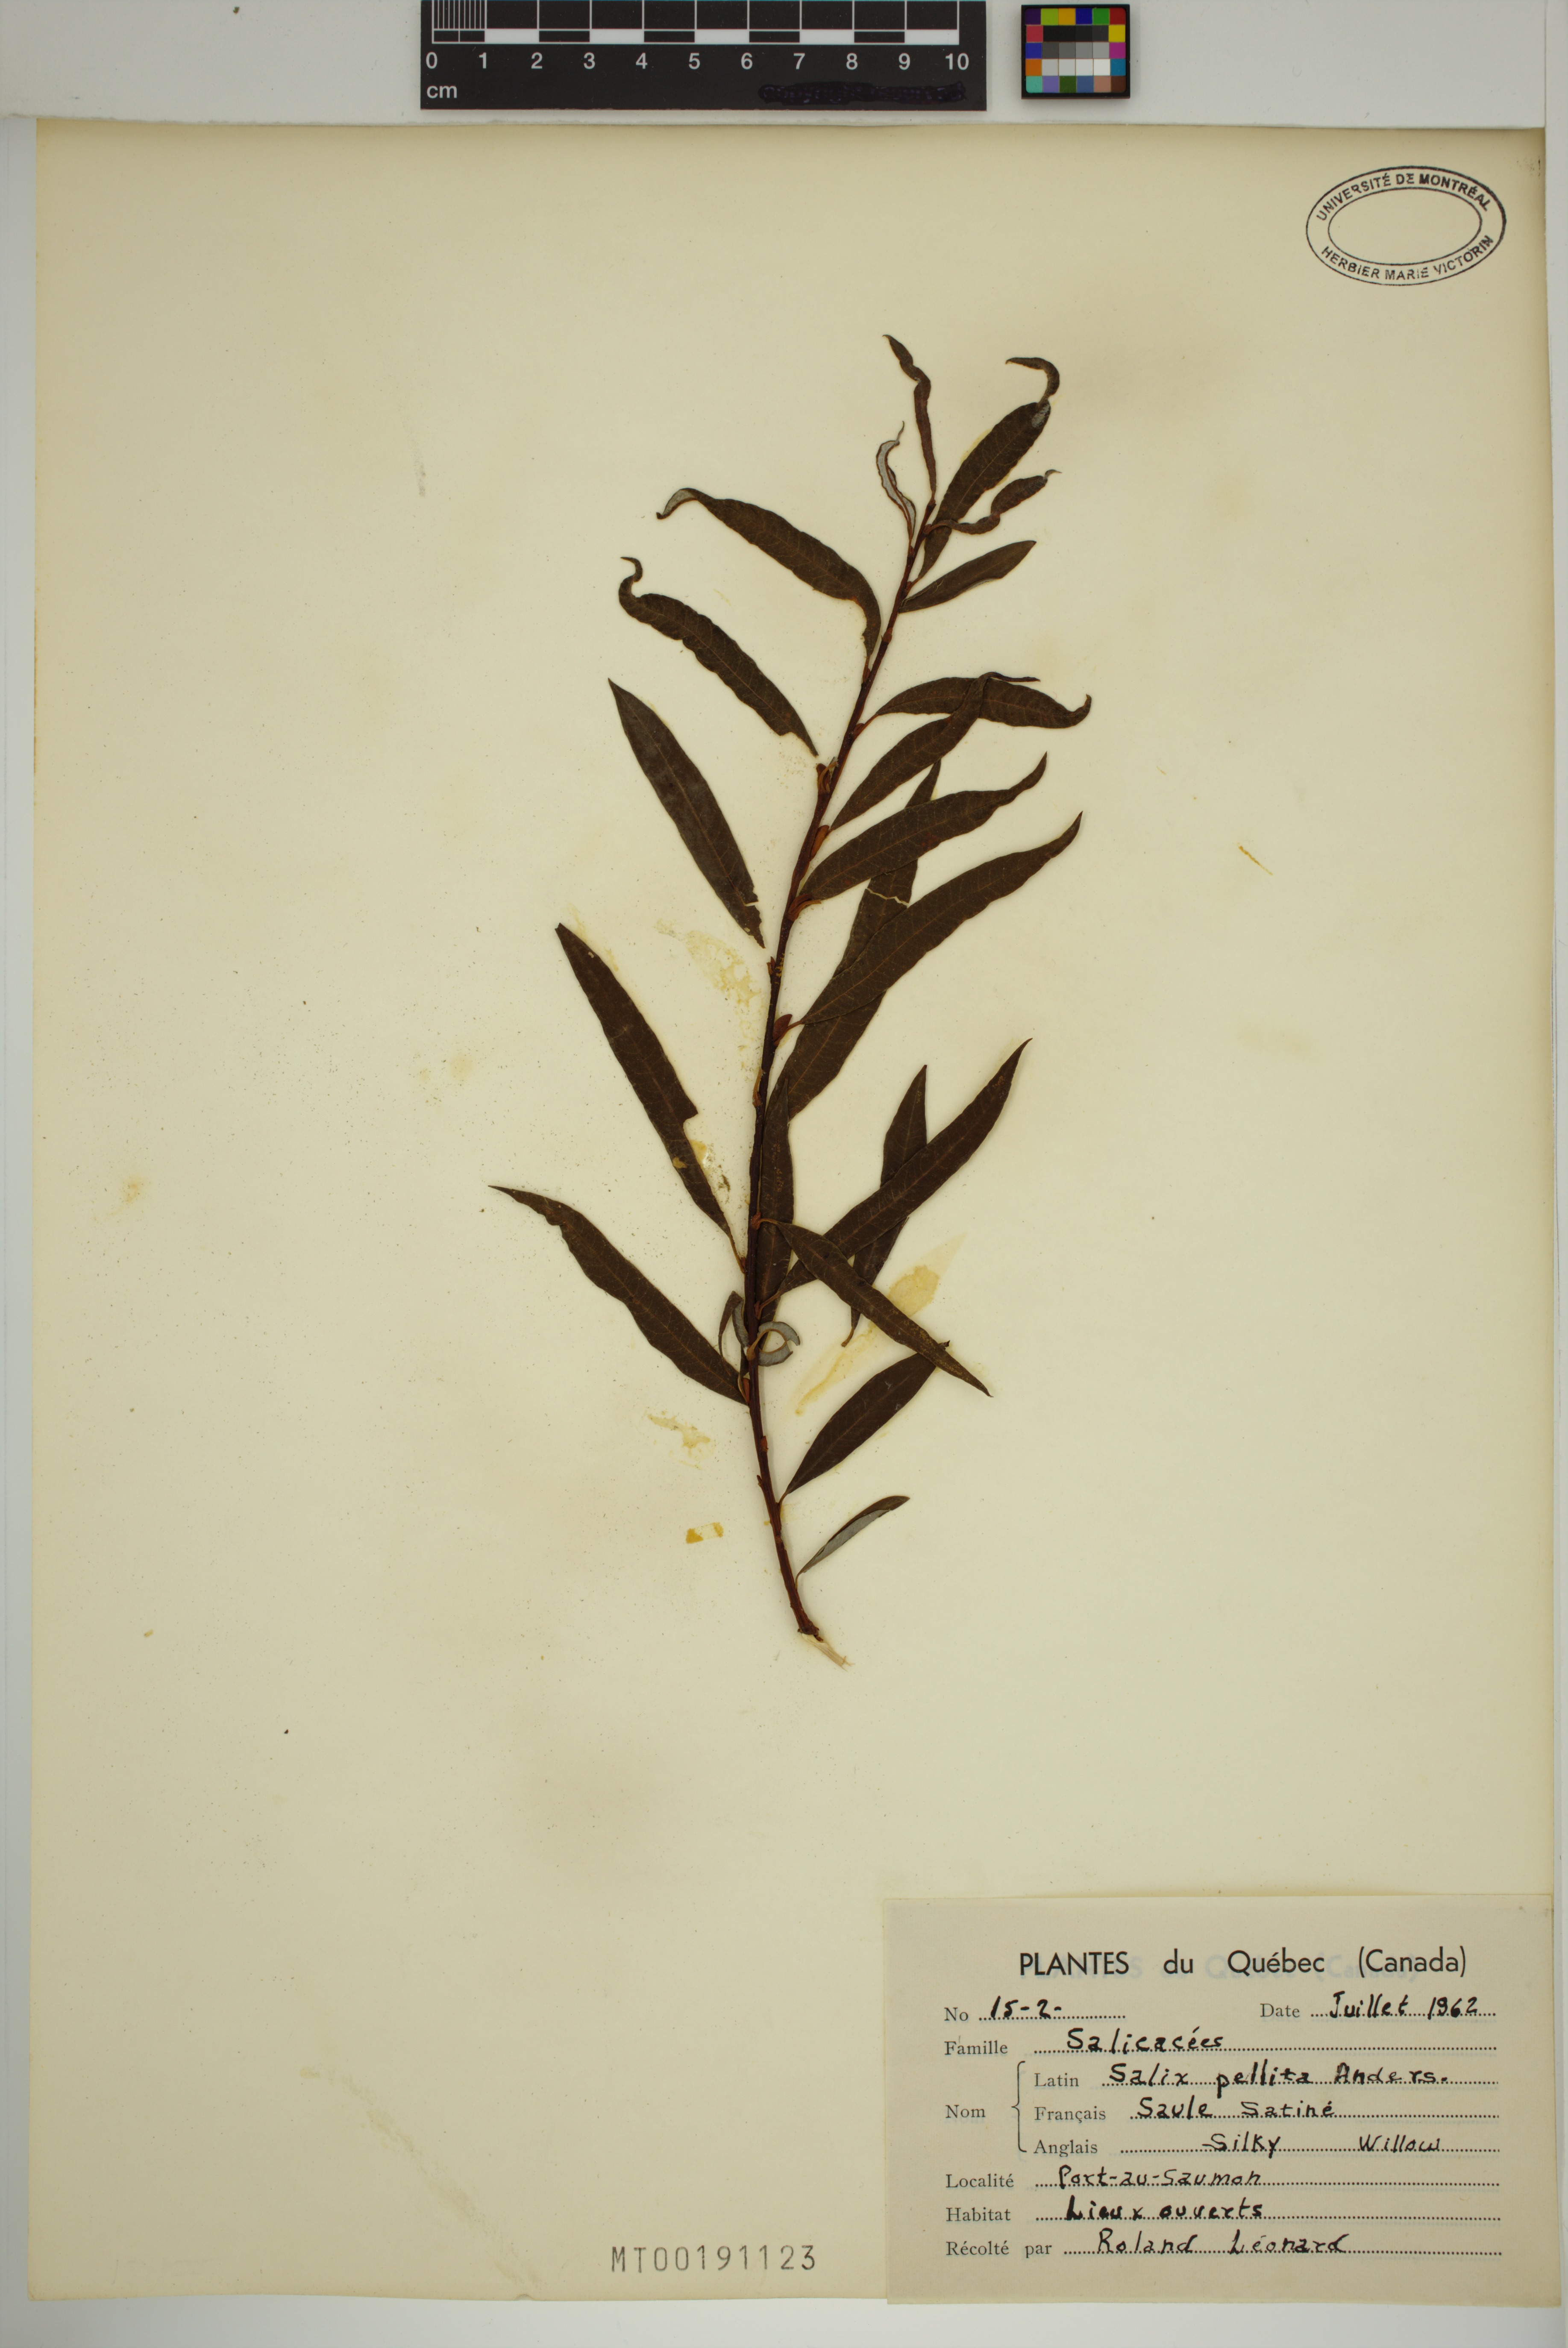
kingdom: Plantae
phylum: Tracheophyta
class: Magnoliopsida
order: Malpighiales
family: Salicaceae
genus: Salix
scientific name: Salix pellita
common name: Satiny willow
